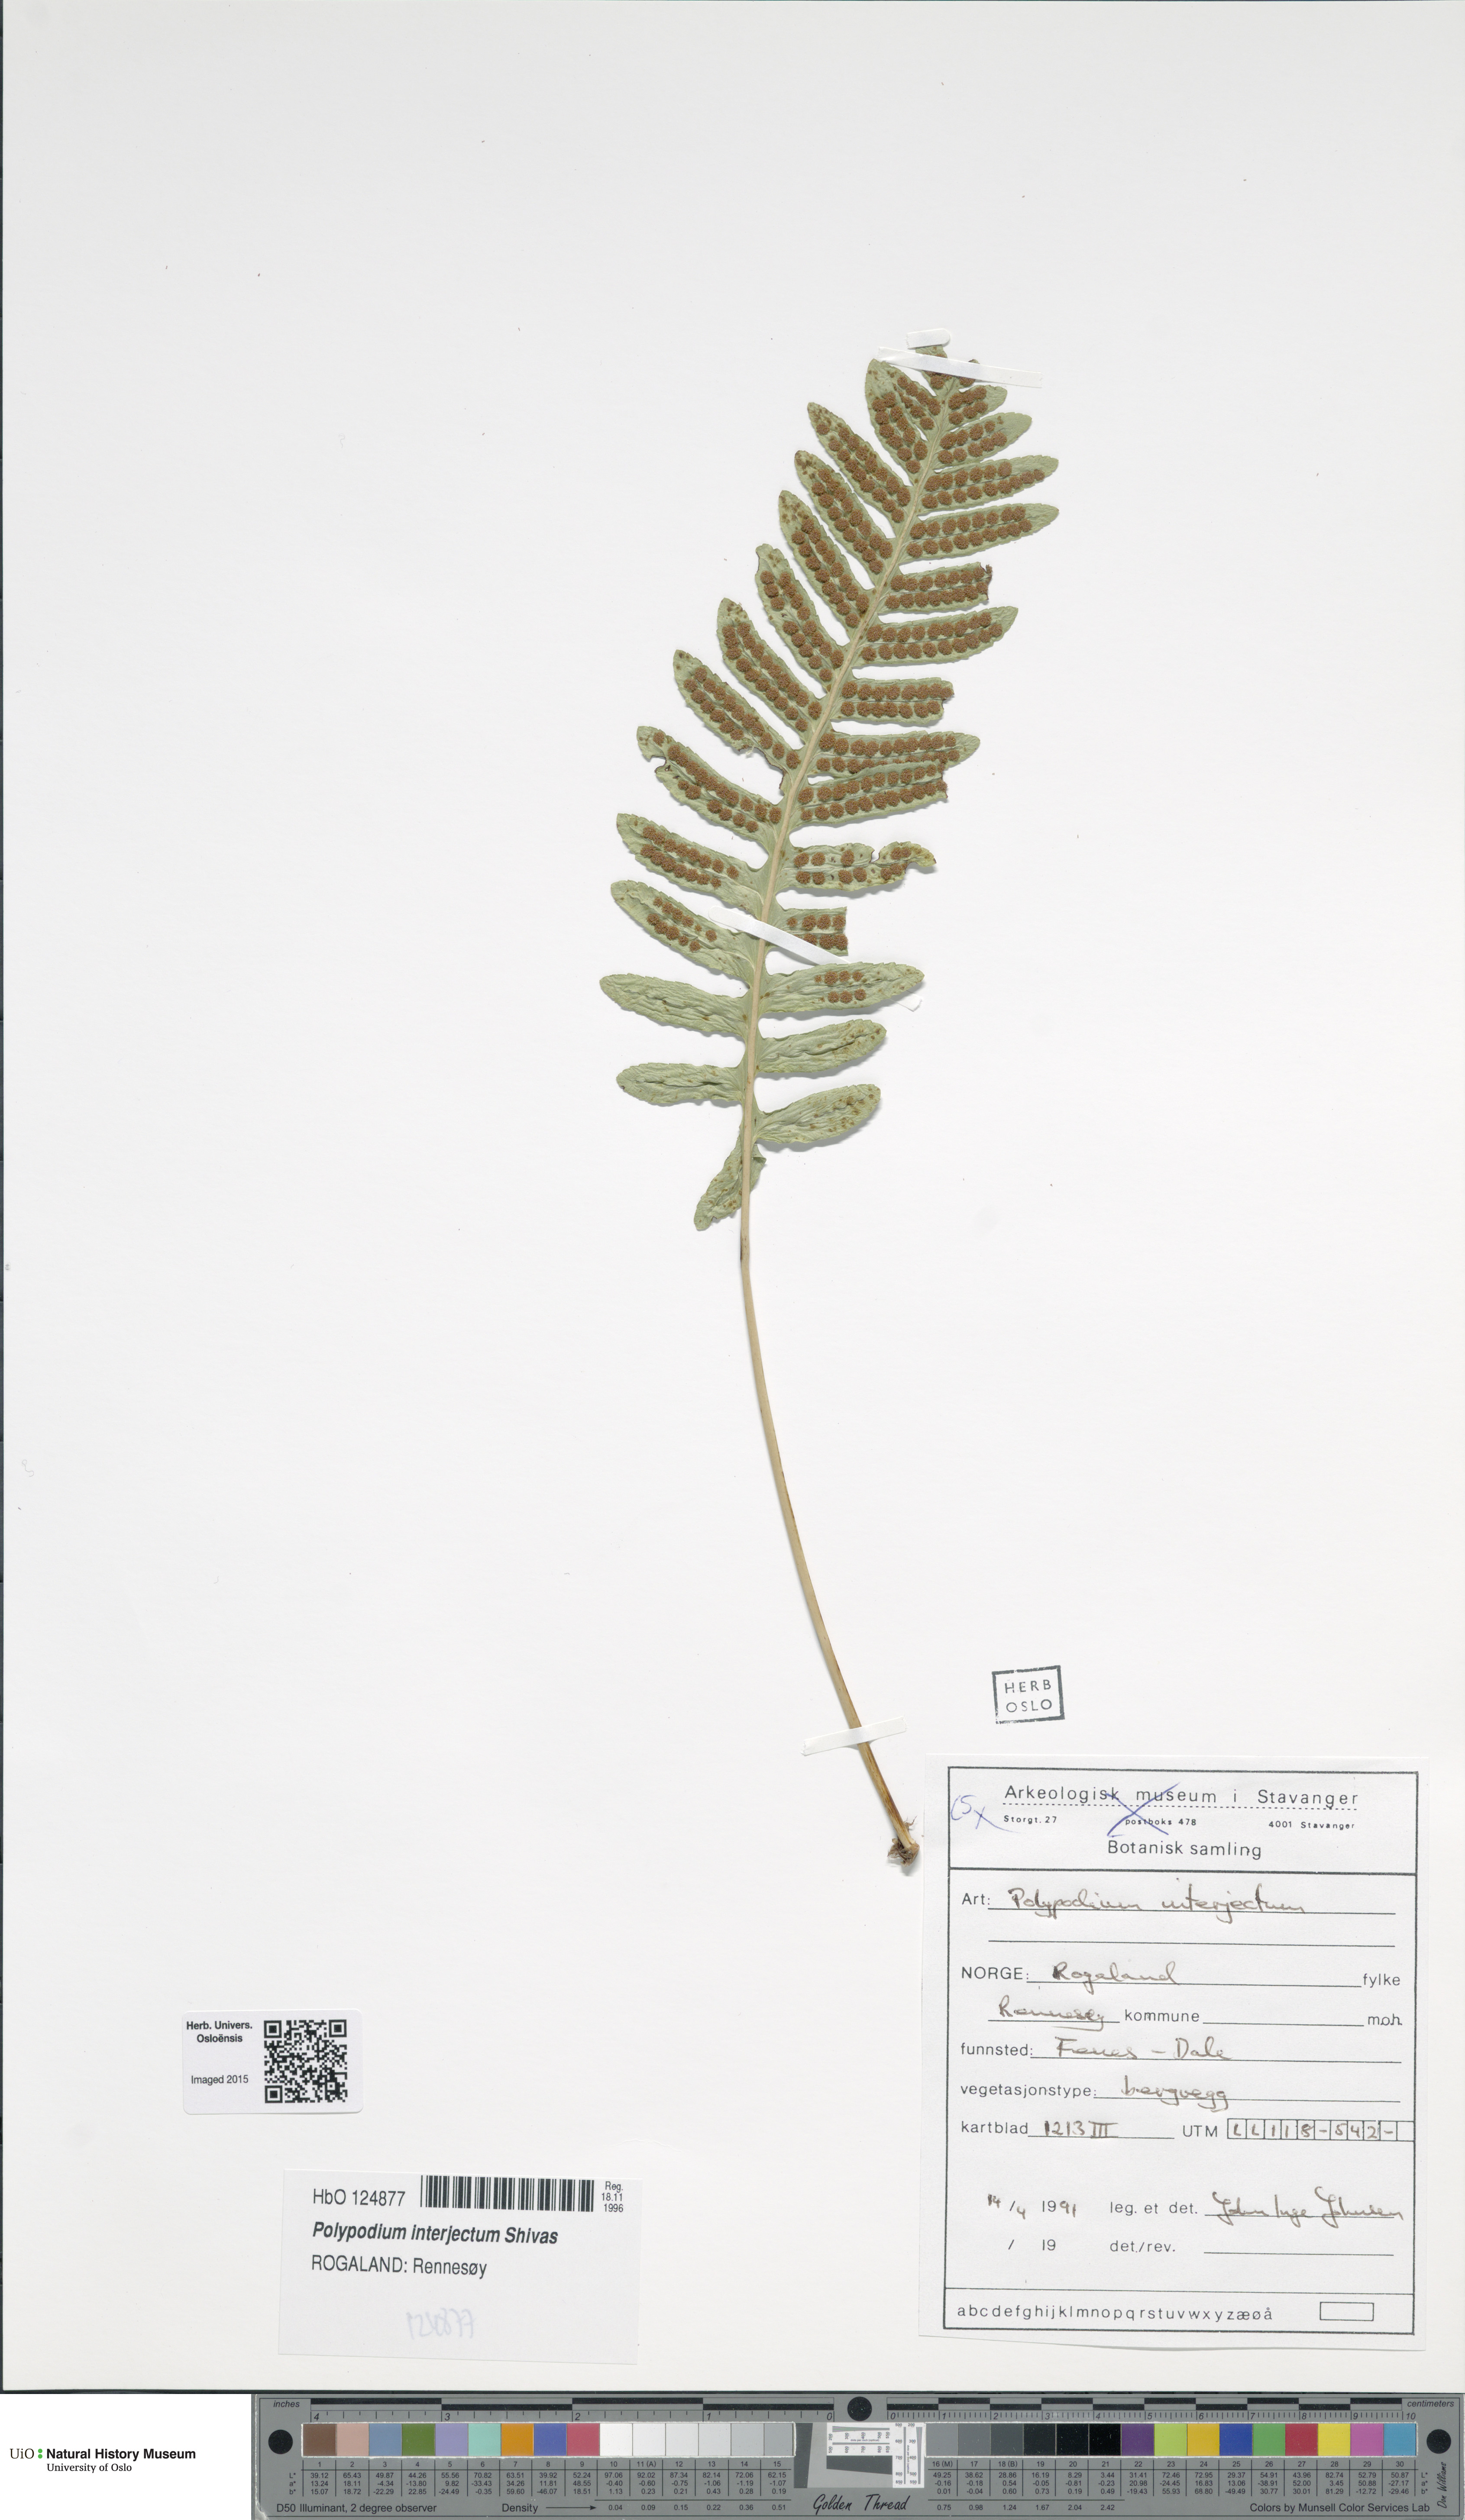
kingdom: Plantae
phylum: Tracheophyta
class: Polypodiopsida
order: Polypodiales
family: Polypodiaceae
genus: Polypodium
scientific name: Polypodium interjectum
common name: Intermediate polypody
